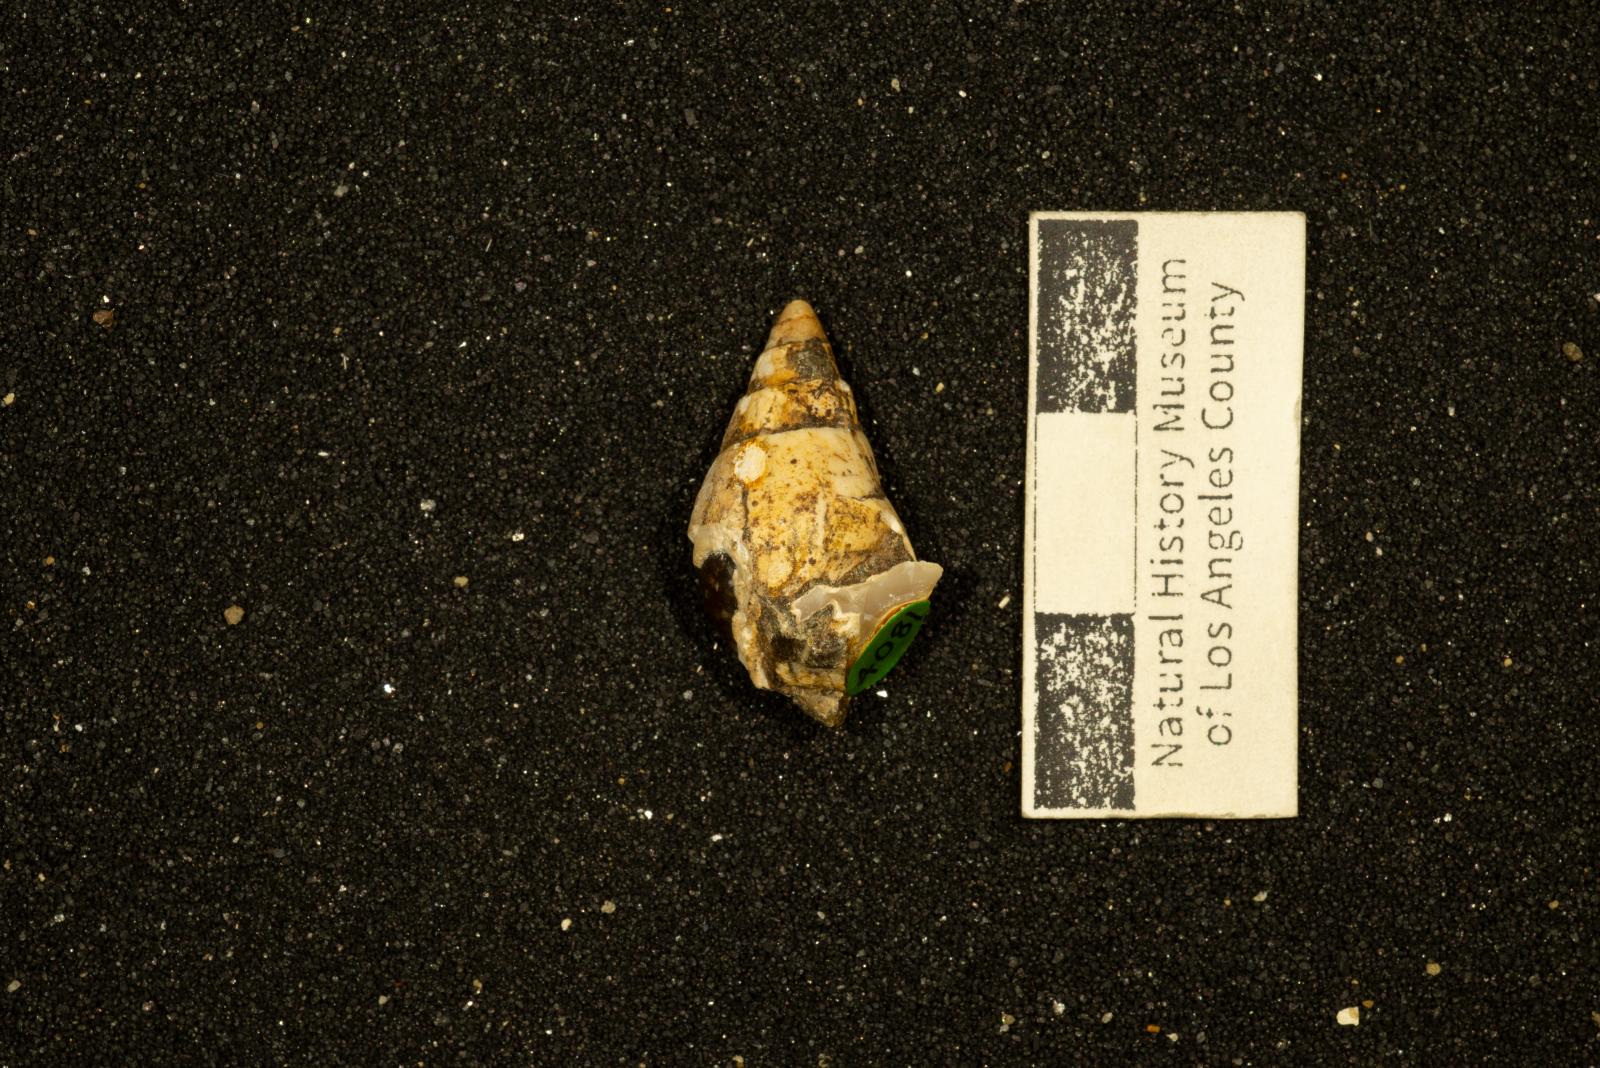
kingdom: Animalia
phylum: Mollusca
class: Gastropoda
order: Cephalaspidea
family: Acteonidae
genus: Tornatellaea
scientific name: Tornatellaea
